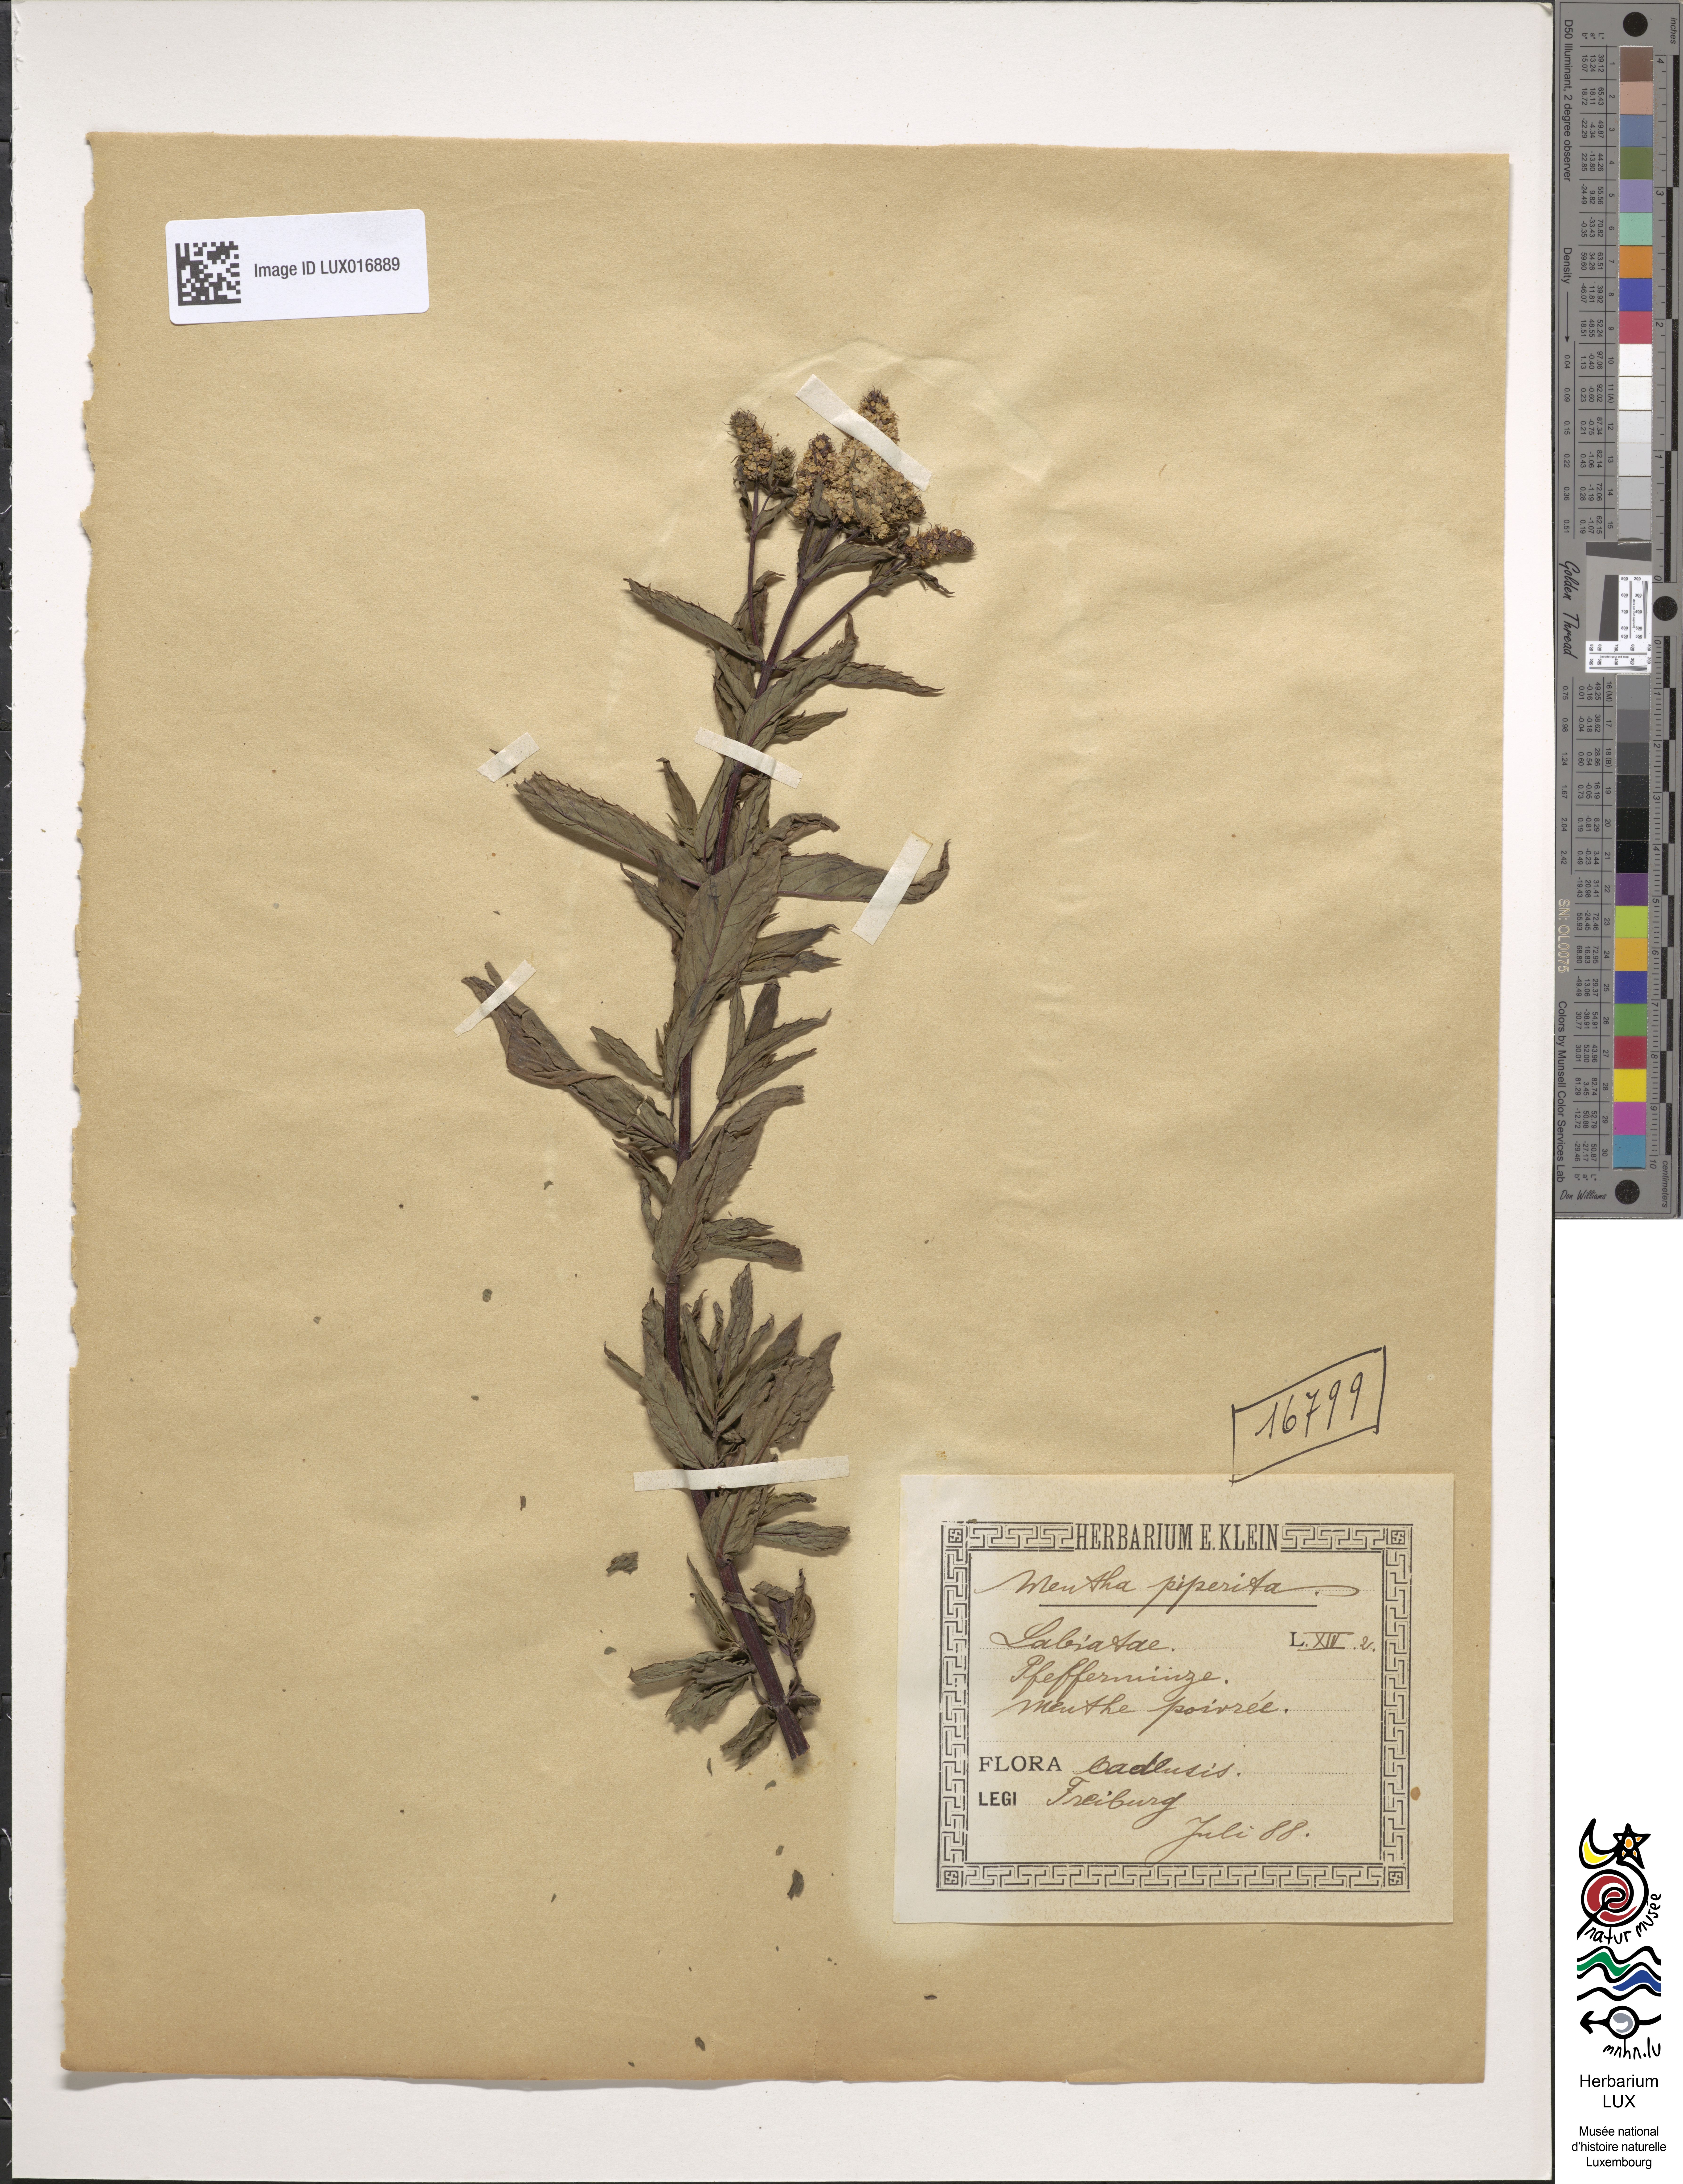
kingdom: Plantae
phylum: Tracheophyta
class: Magnoliopsida
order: Lamiales
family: Lamiaceae
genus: Mentha
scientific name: Mentha piperita
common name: Peppermint
